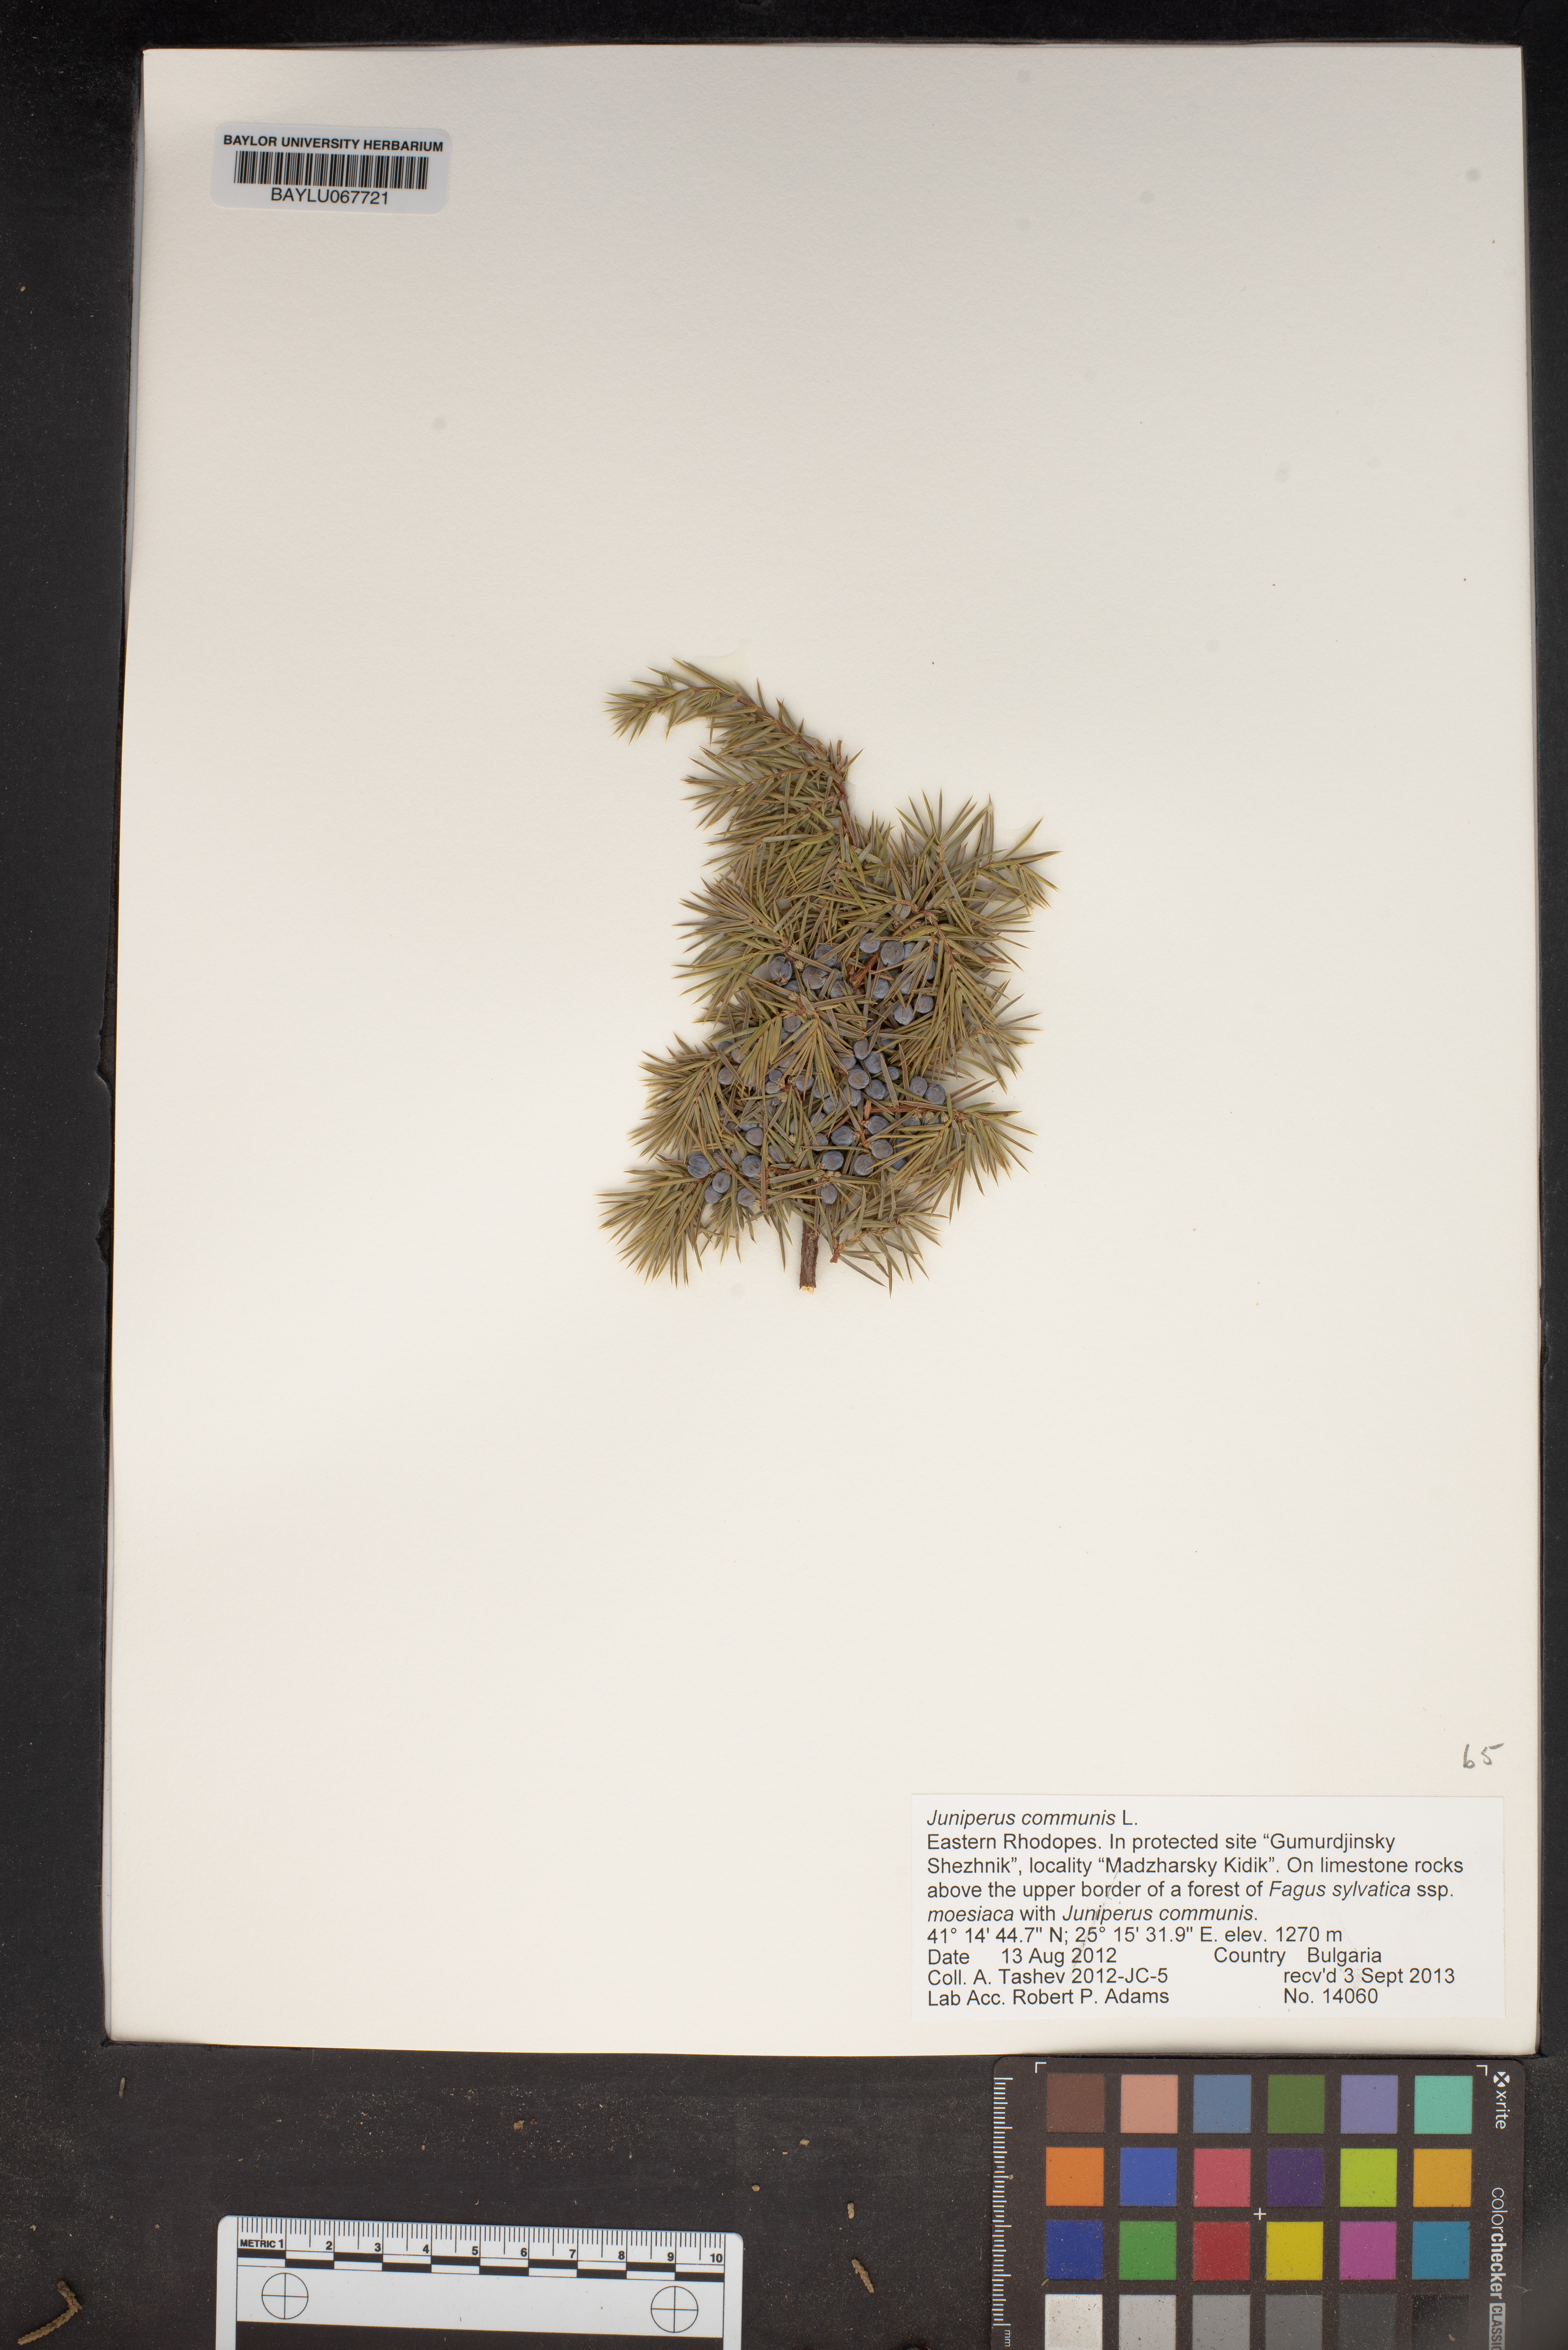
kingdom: Plantae
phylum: Tracheophyta
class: Pinopsida
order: Pinales
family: Cupressaceae
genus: Juniperus
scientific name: Juniperus communis
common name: Common juniper
